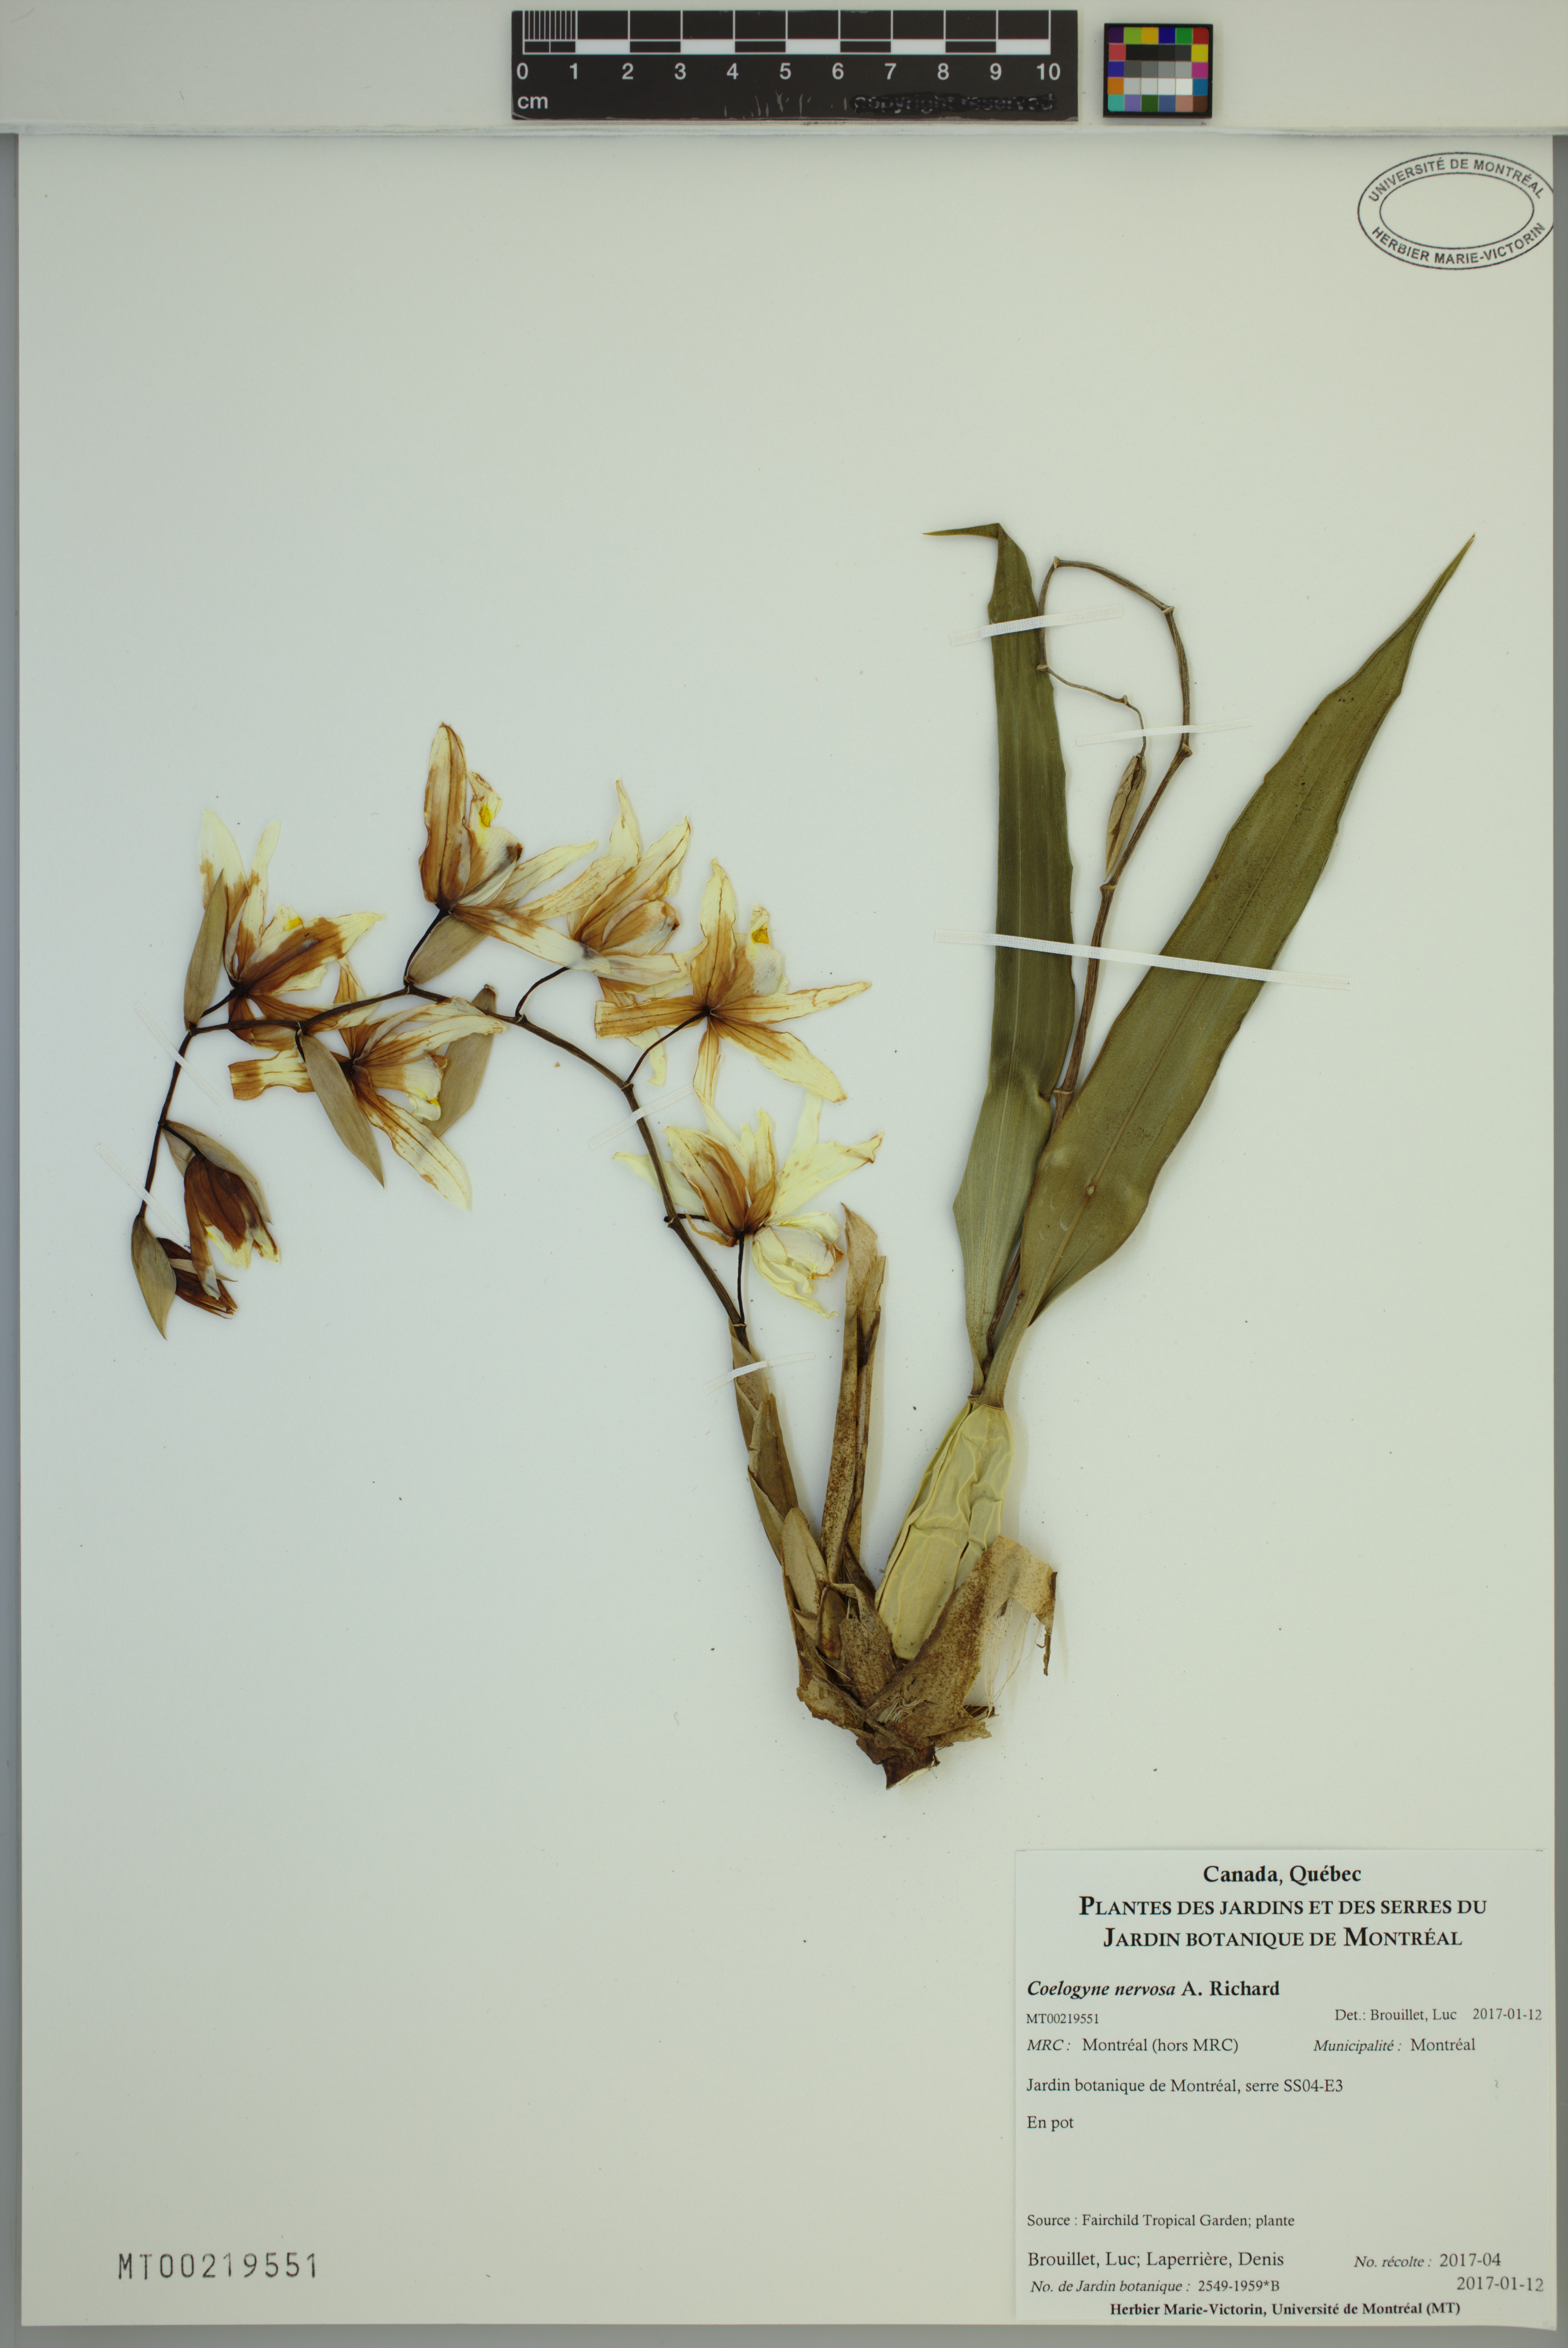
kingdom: Plantae
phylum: Tracheophyta
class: Liliopsida
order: Asparagales
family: Orchidaceae
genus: Coelogyne
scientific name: Coelogyne nervosa
